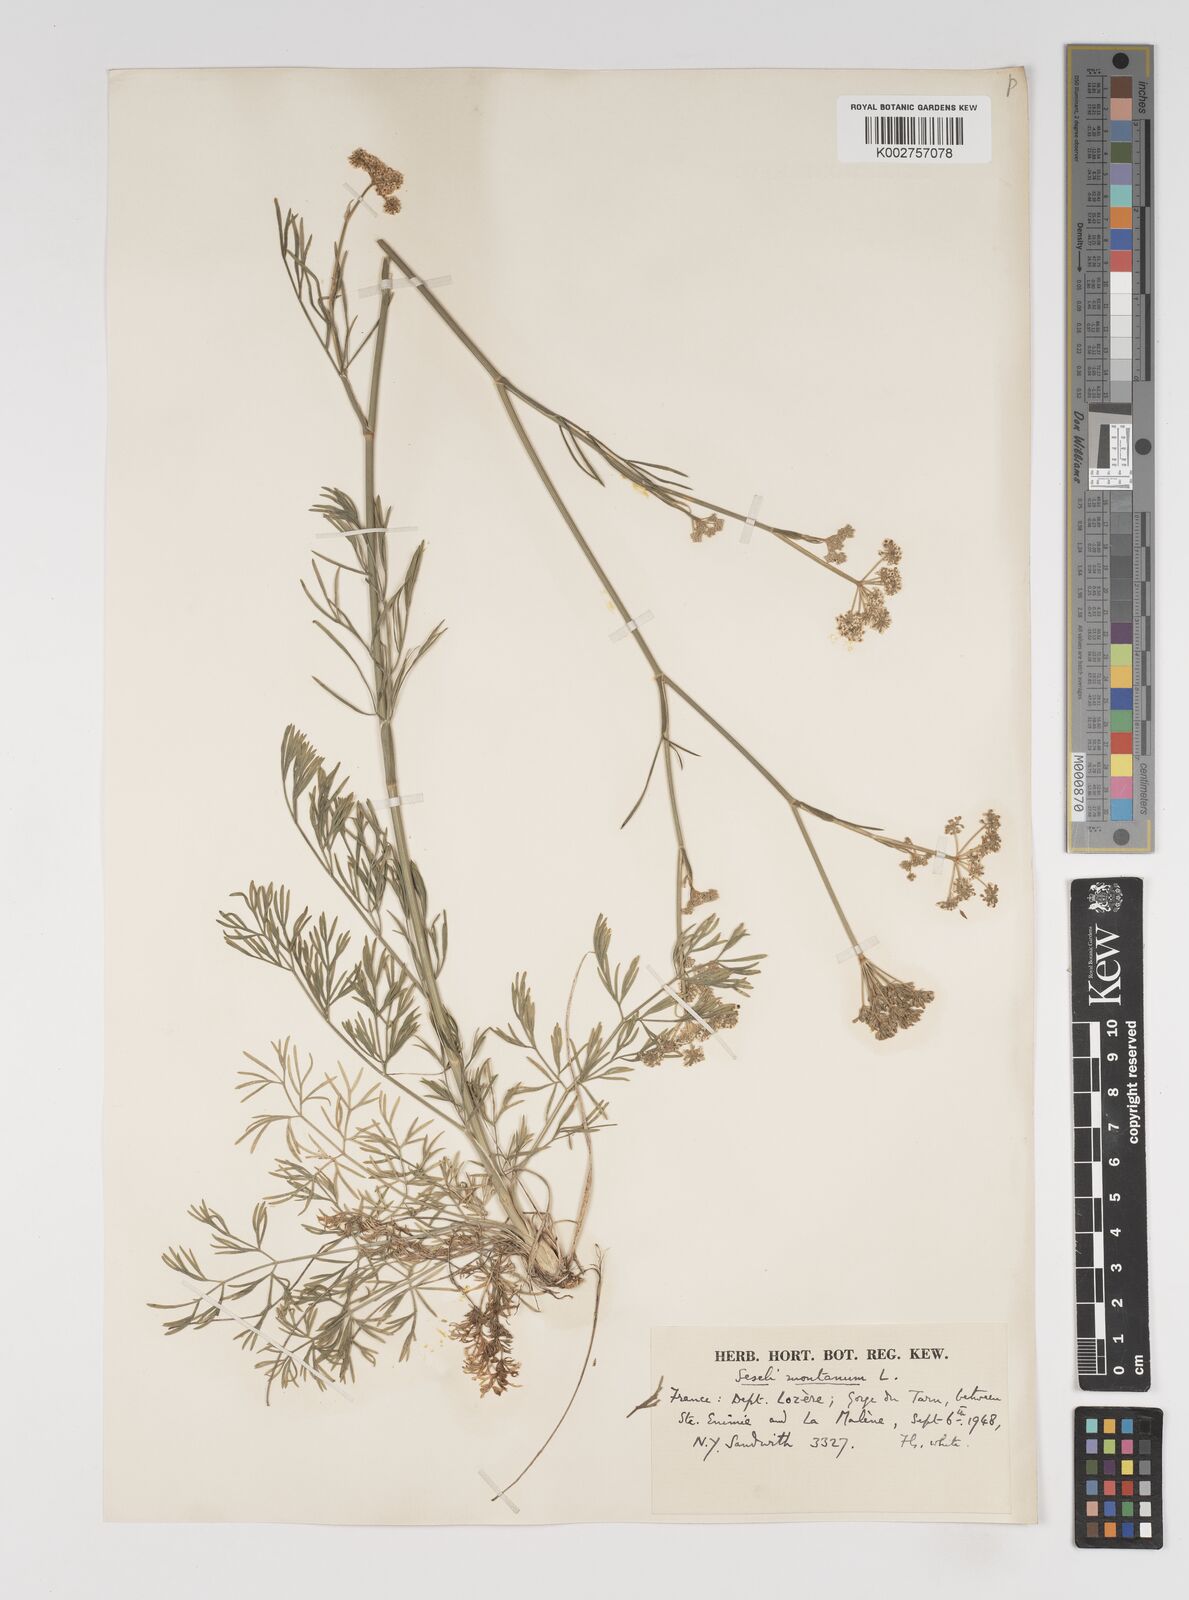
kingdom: Plantae
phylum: Tracheophyta
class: Magnoliopsida
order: Apiales
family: Apiaceae
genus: Seseli
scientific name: Seseli montanum
